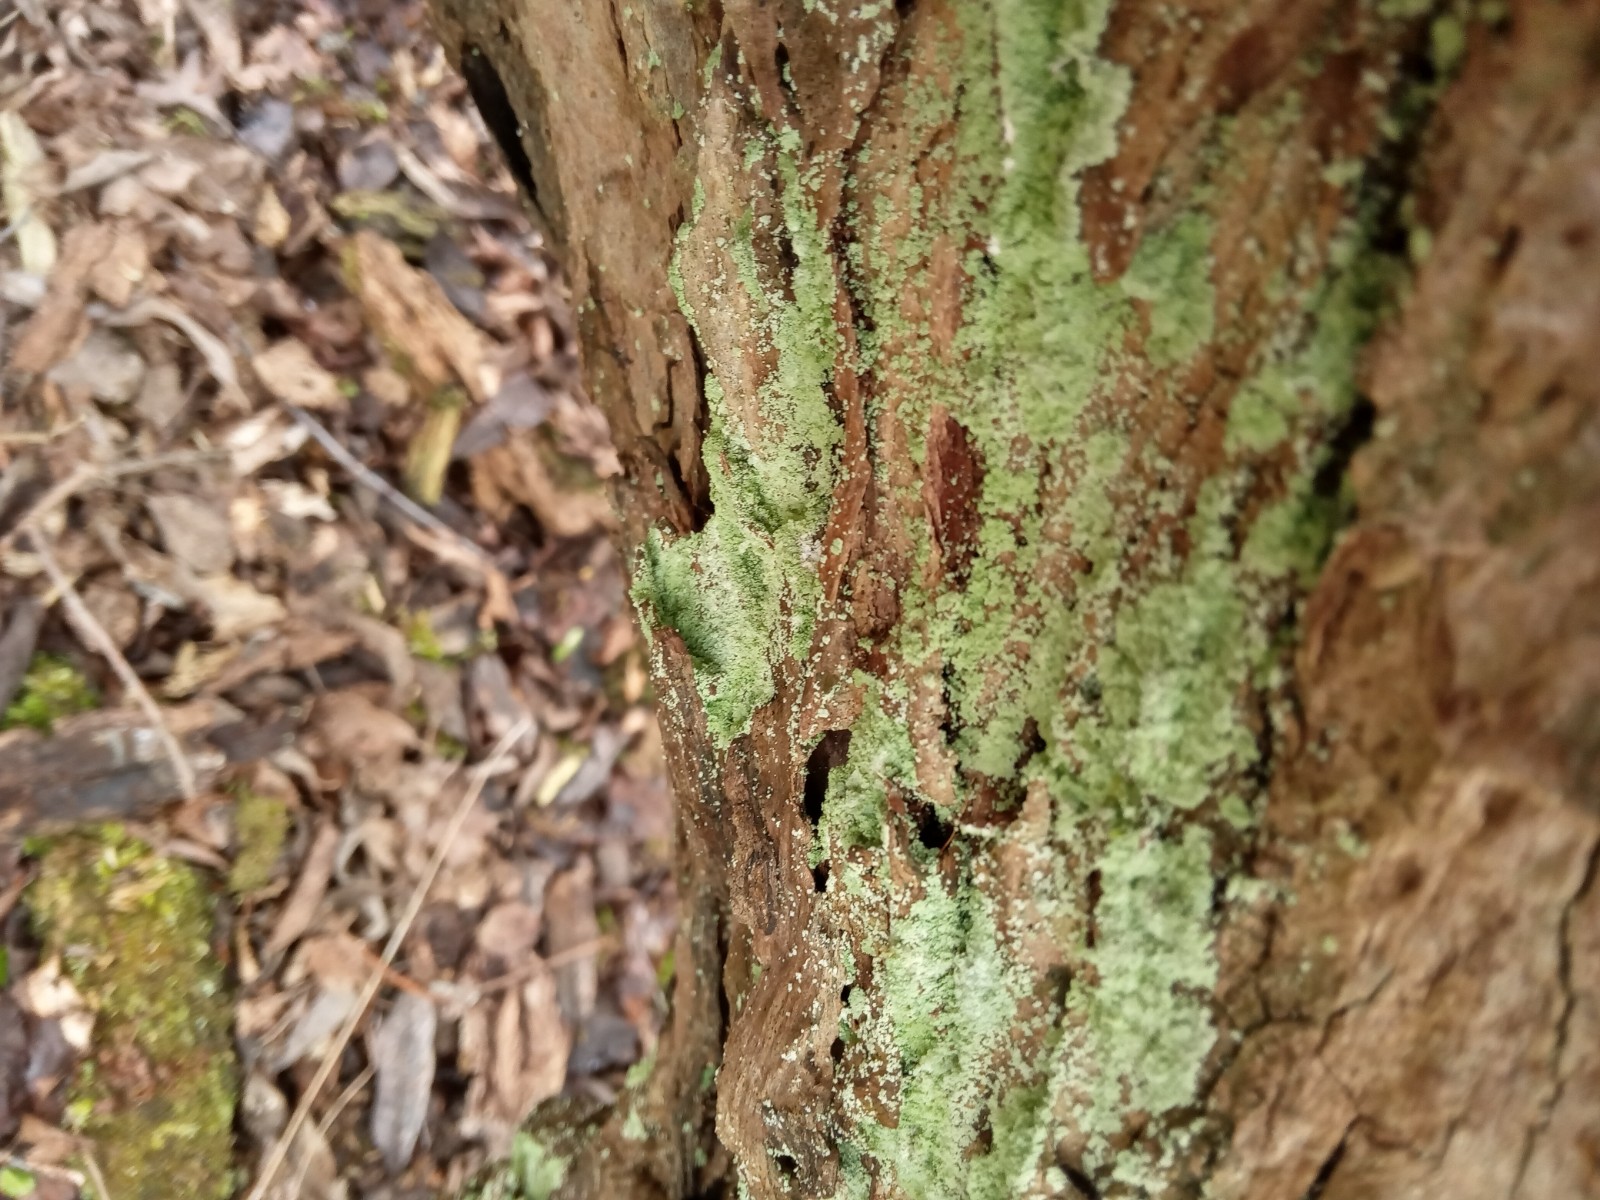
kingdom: Fungi
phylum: Ascomycota
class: Lecanoromycetes
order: Lecanorales
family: Stereocaulaceae
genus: Lepraria
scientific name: Lepraria lobificans
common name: grøn støvlav
